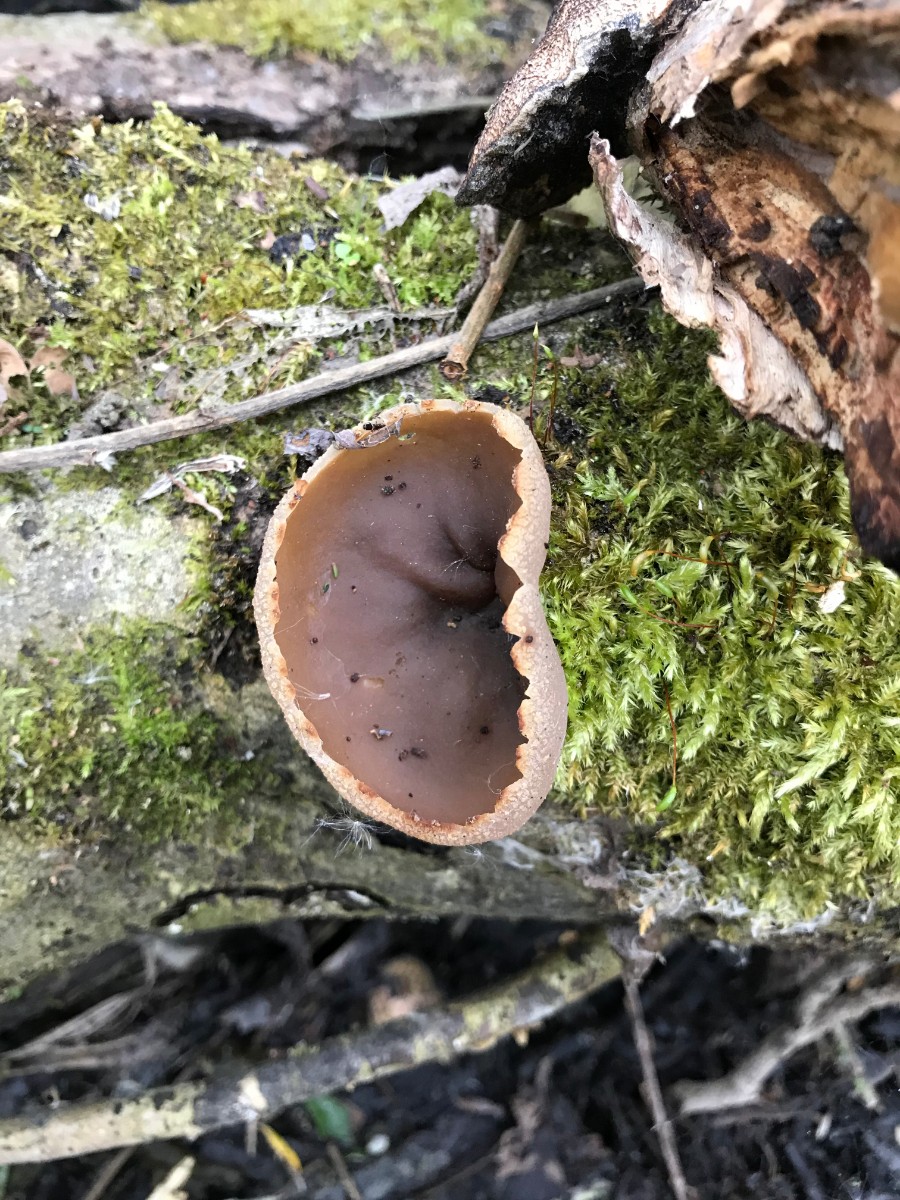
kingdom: Fungi
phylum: Ascomycota
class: Pezizomycetes
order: Pezizales
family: Pezizaceae
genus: Peziza
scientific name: Peziza
